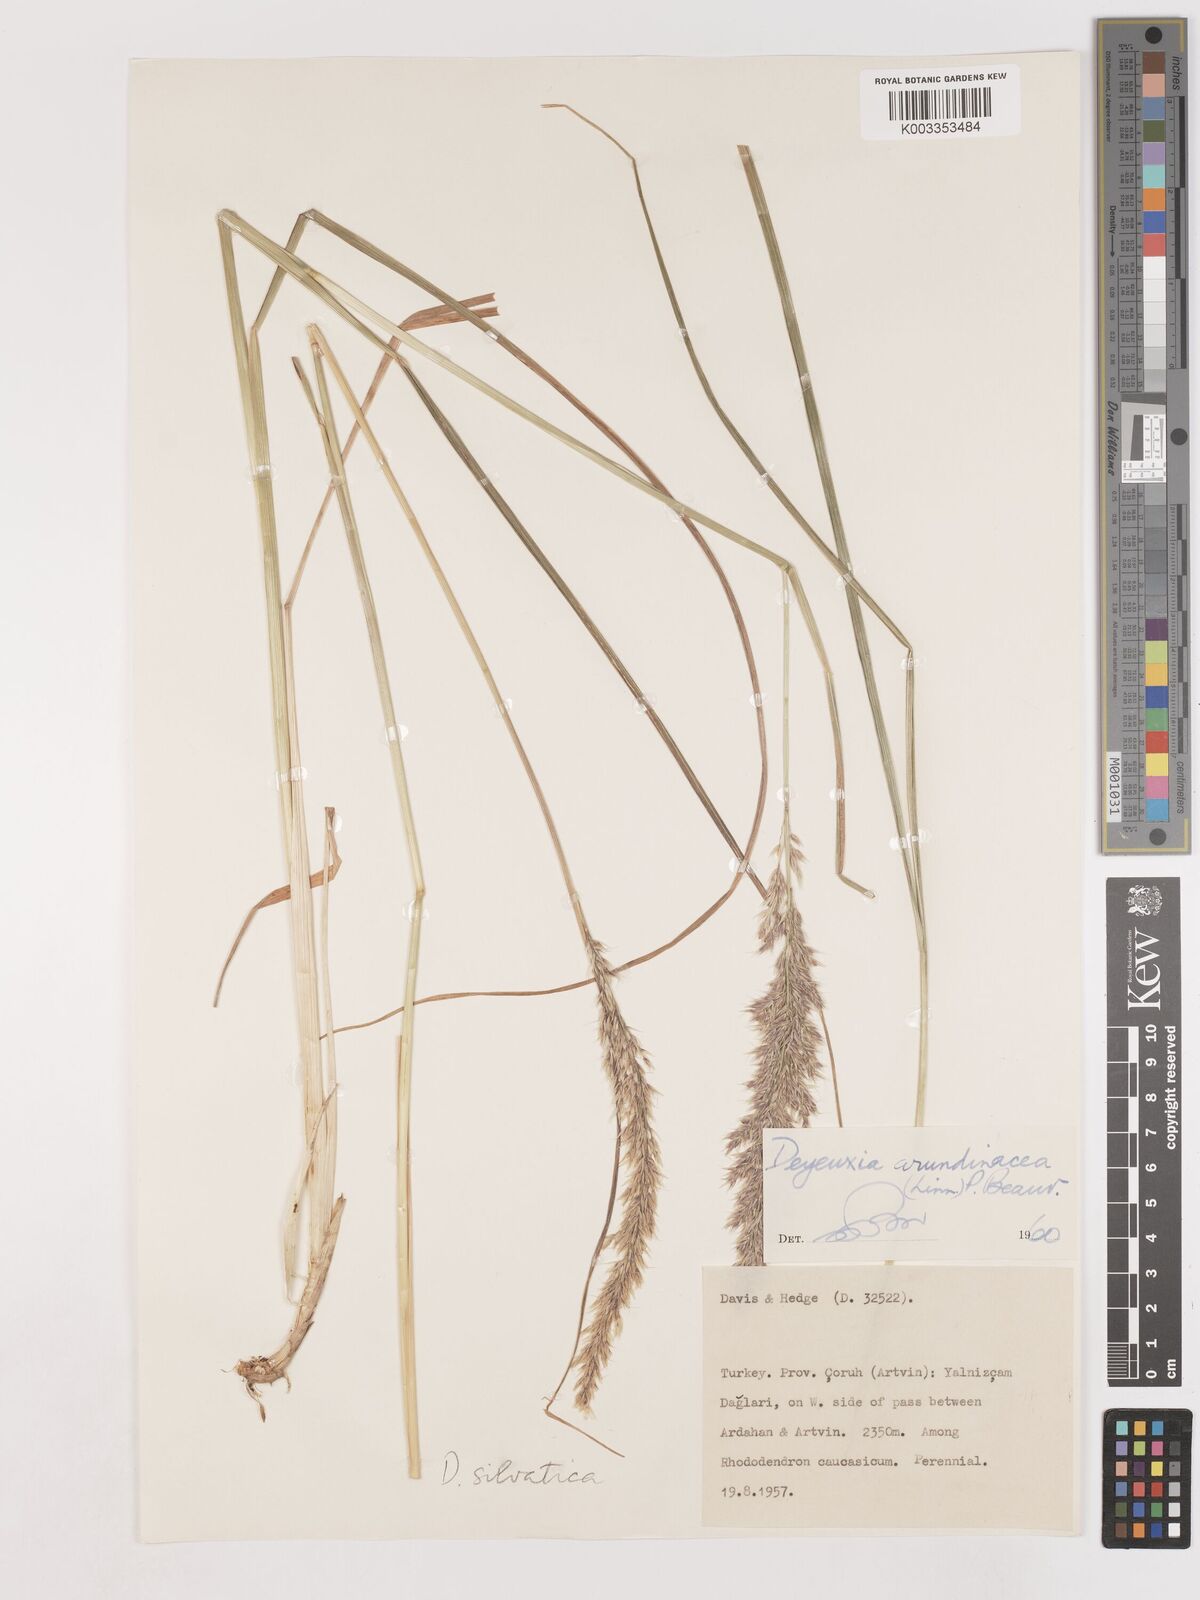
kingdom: Plantae
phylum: Tracheophyta
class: Liliopsida
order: Poales
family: Poaceae
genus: Calamagrostis
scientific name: Calamagrostis
